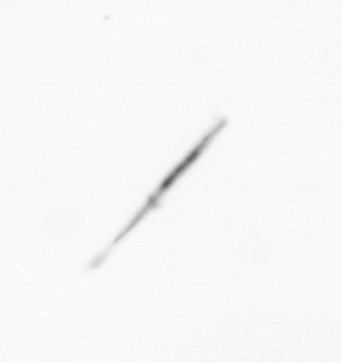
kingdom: Chromista
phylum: Ochrophyta
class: Bacillariophyceae
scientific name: Bacillariophyceae
